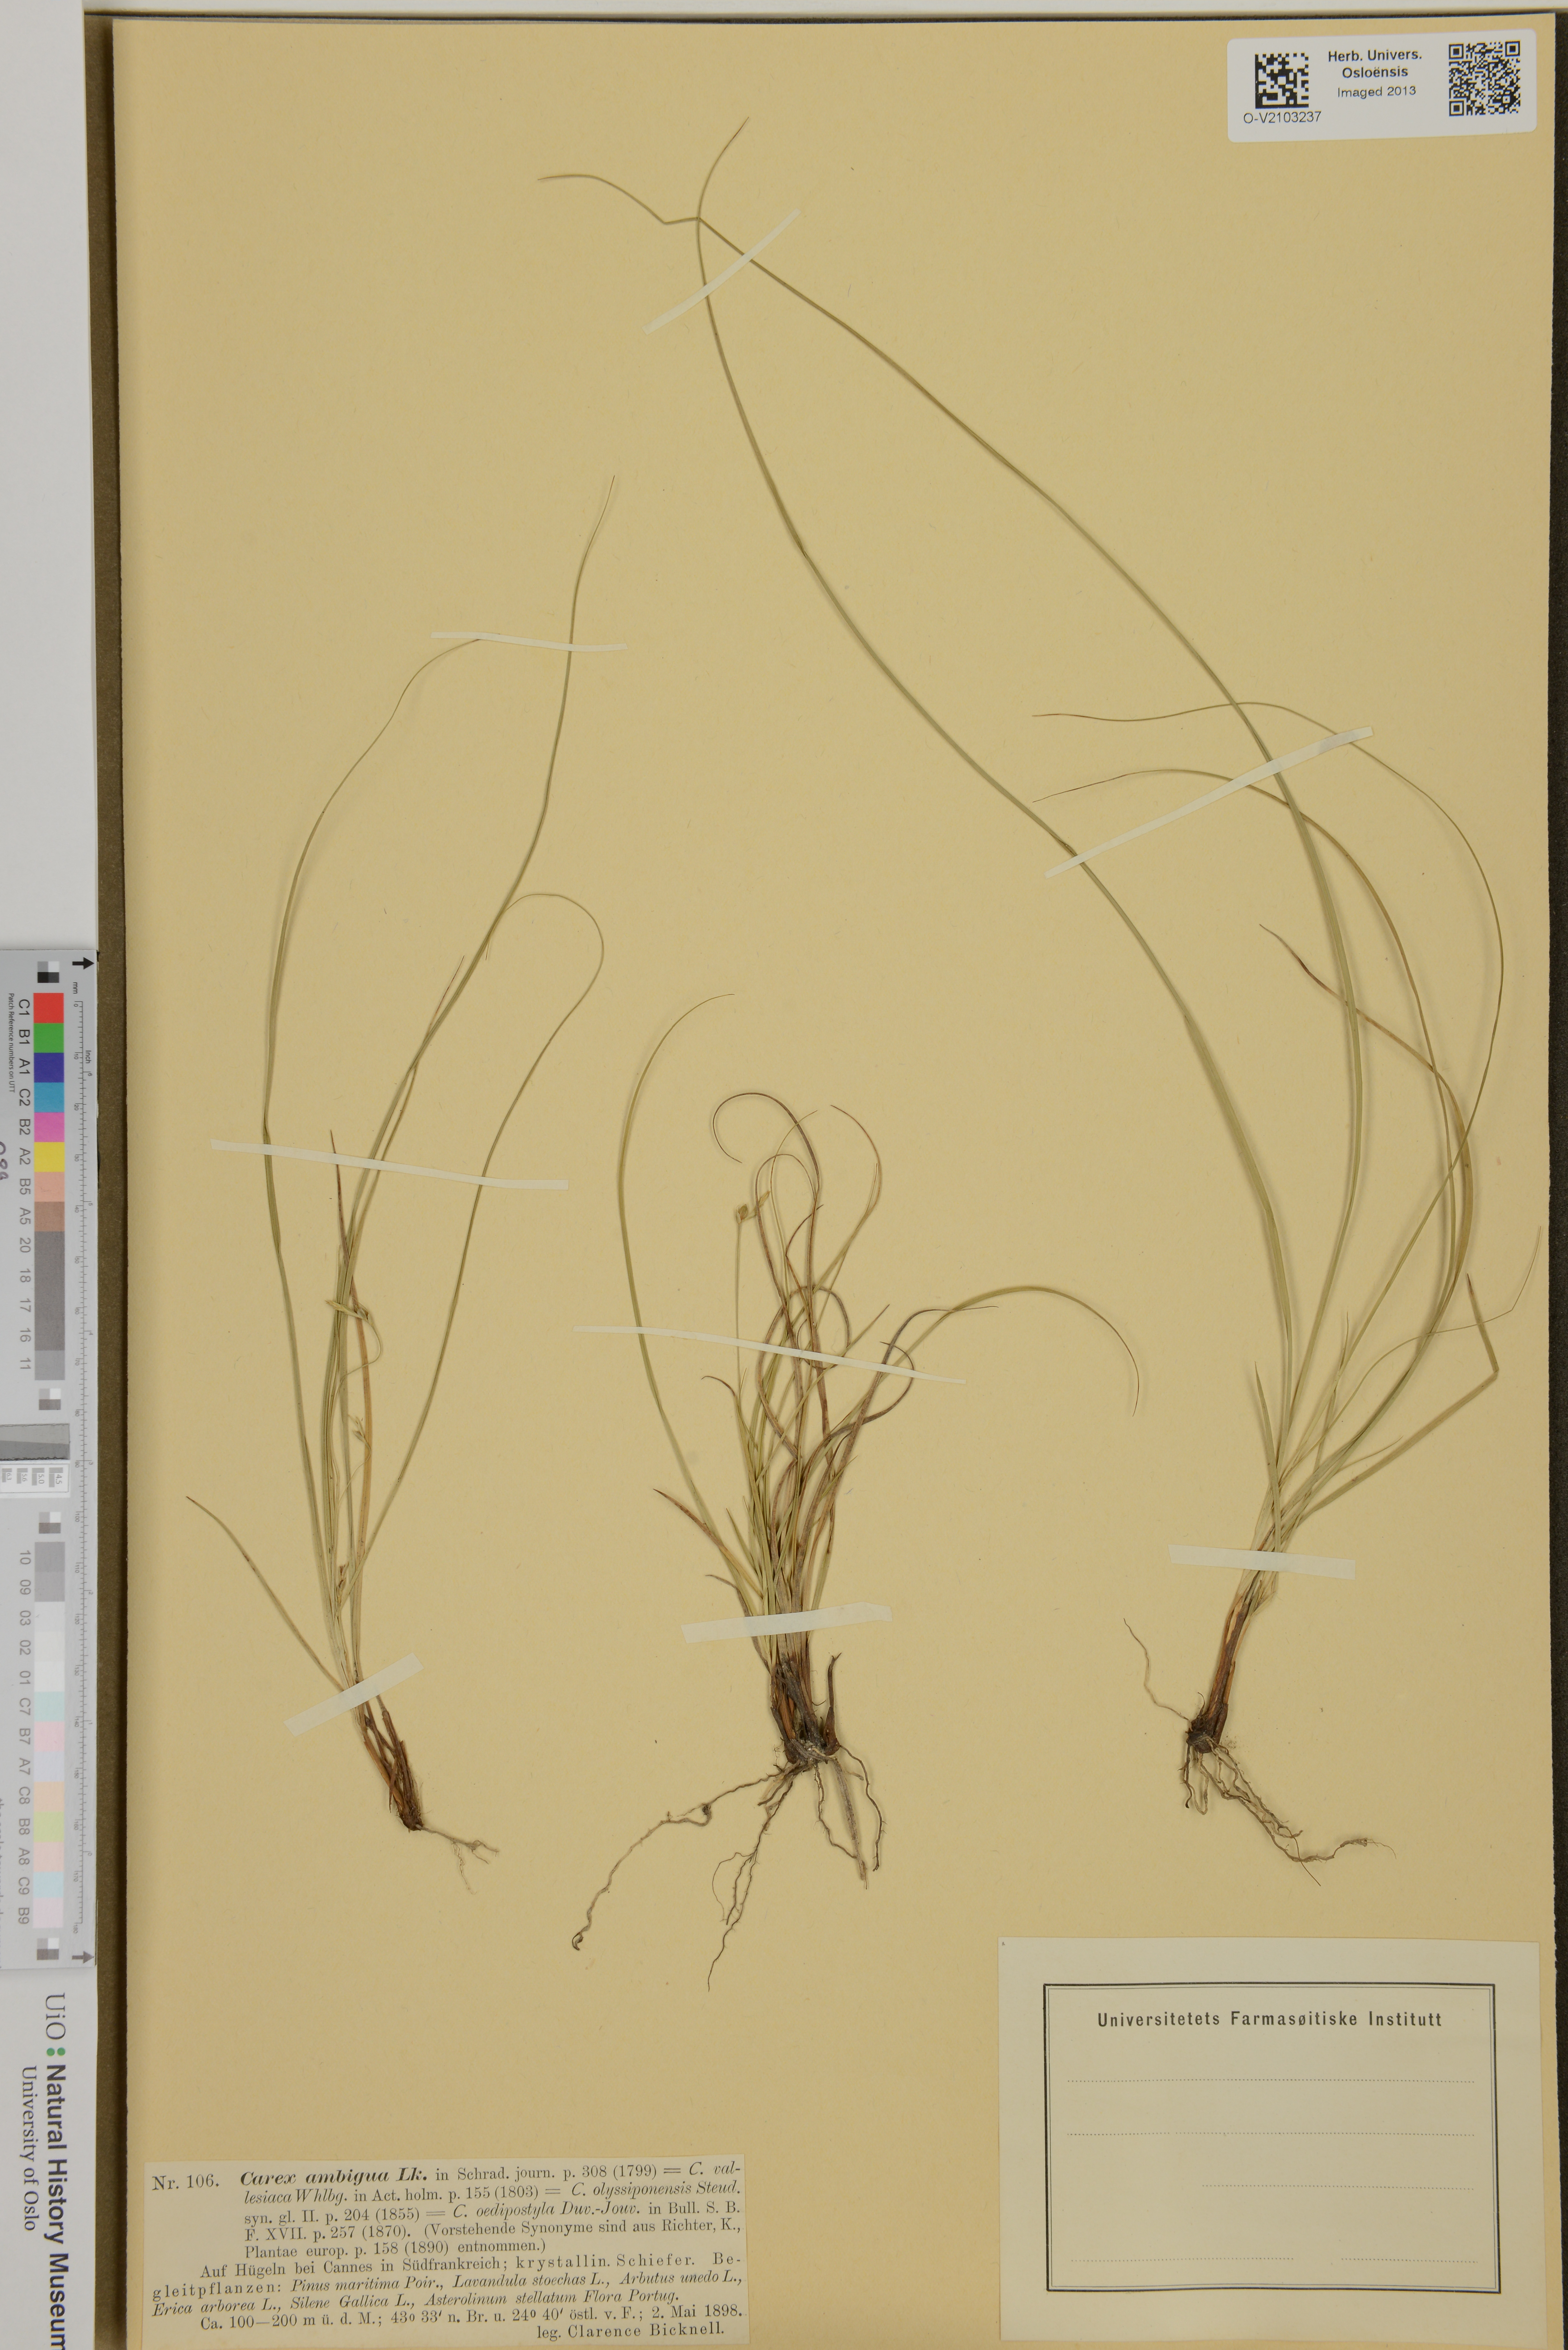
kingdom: Plantae
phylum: Tracheophyta
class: Liliopsida
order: Poales
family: Cyperaceae
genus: Carex
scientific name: Carex
